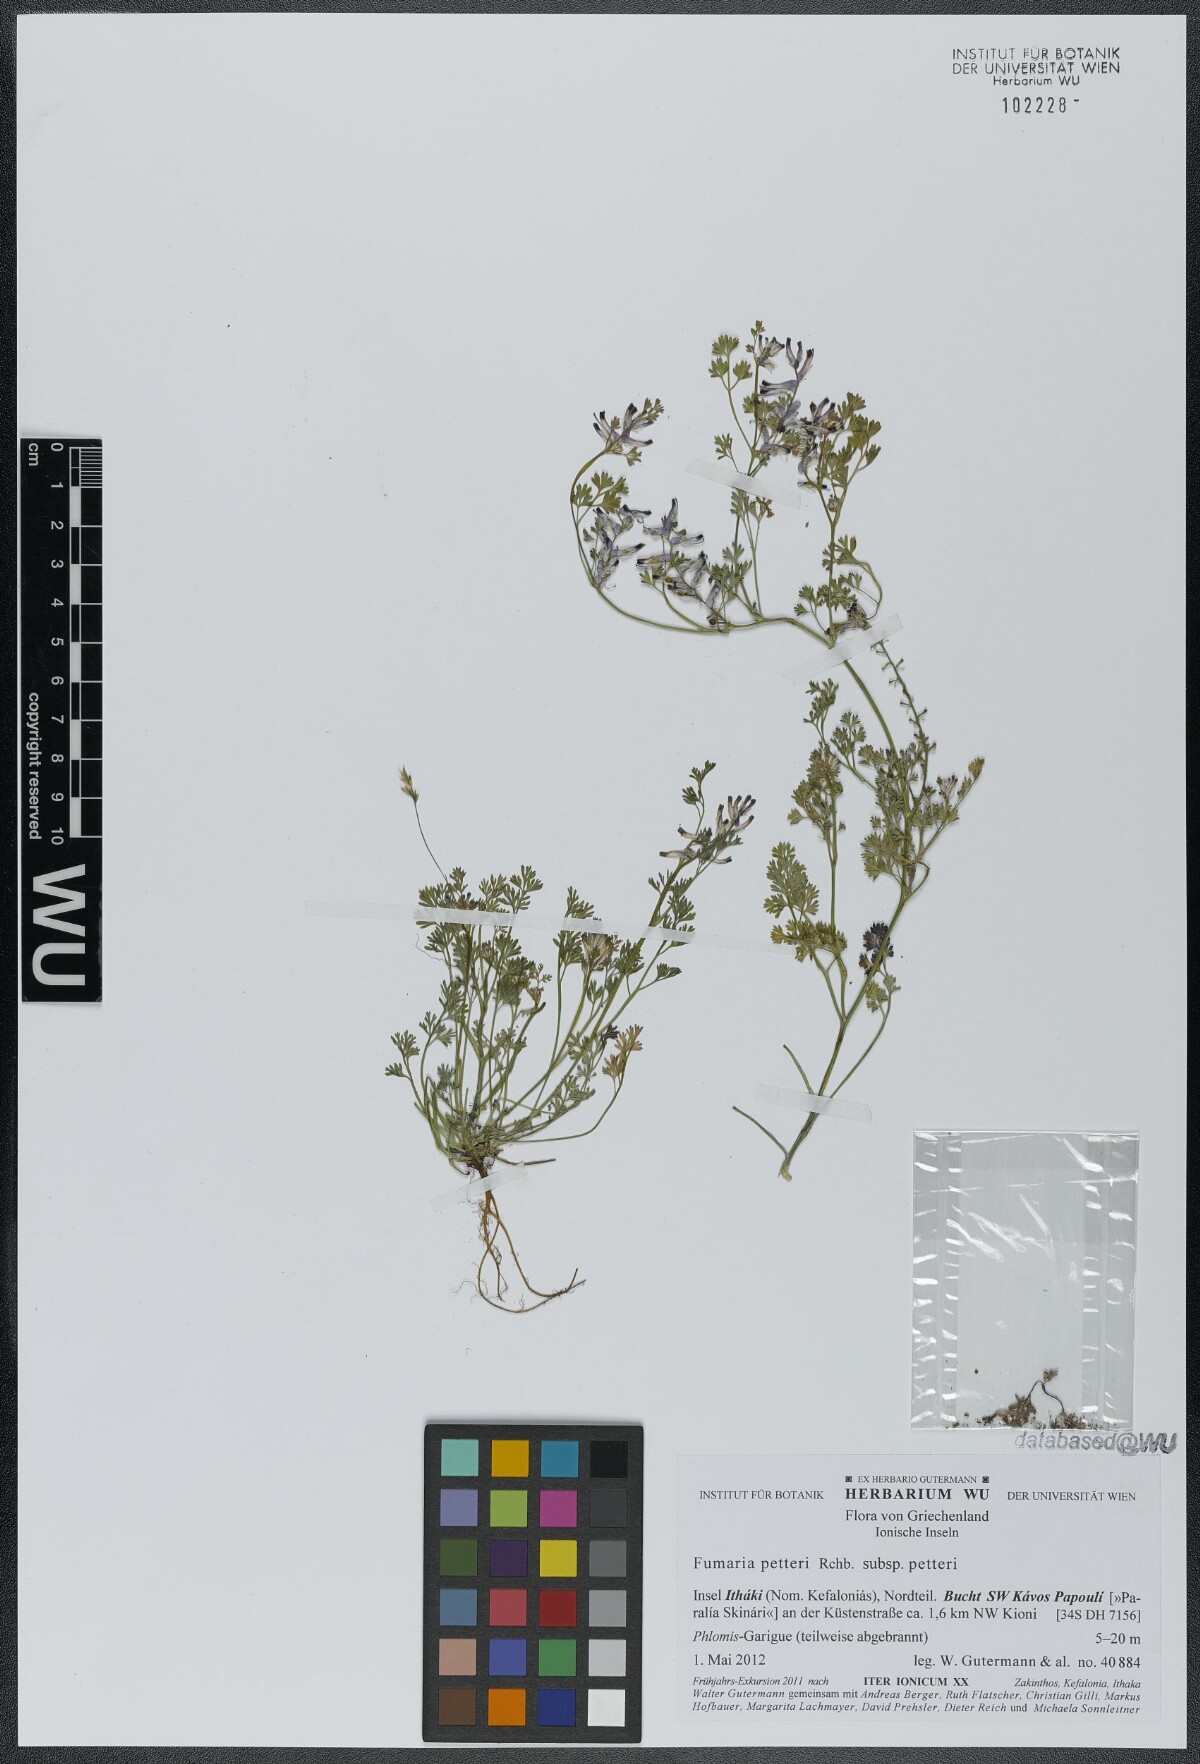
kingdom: Plantae
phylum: Tracheophyta
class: Magnoliopsida
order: Ranunculales
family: Papaveraceae
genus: Fumaria
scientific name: Fumaria petteri
